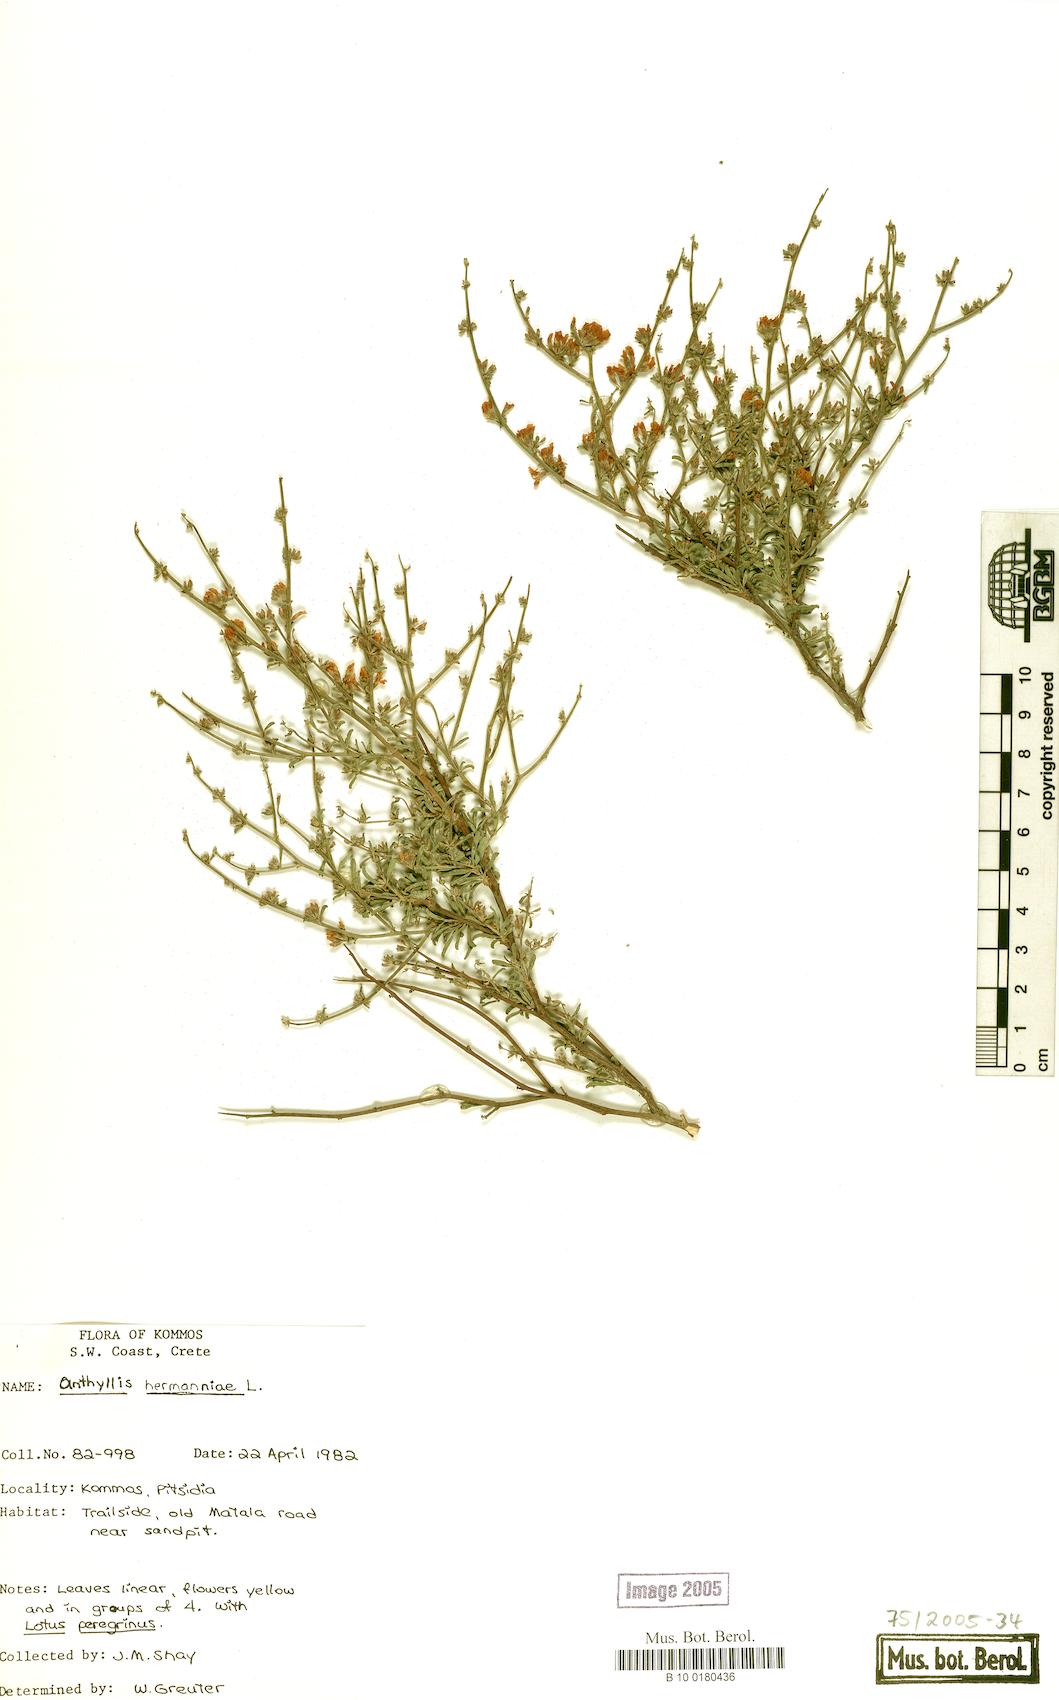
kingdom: Plantae
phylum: Tracheophyta
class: Magnoliopsida
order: Fabales
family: Fabaceae
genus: Anthyllis
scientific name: Anthyllis hermanniae
